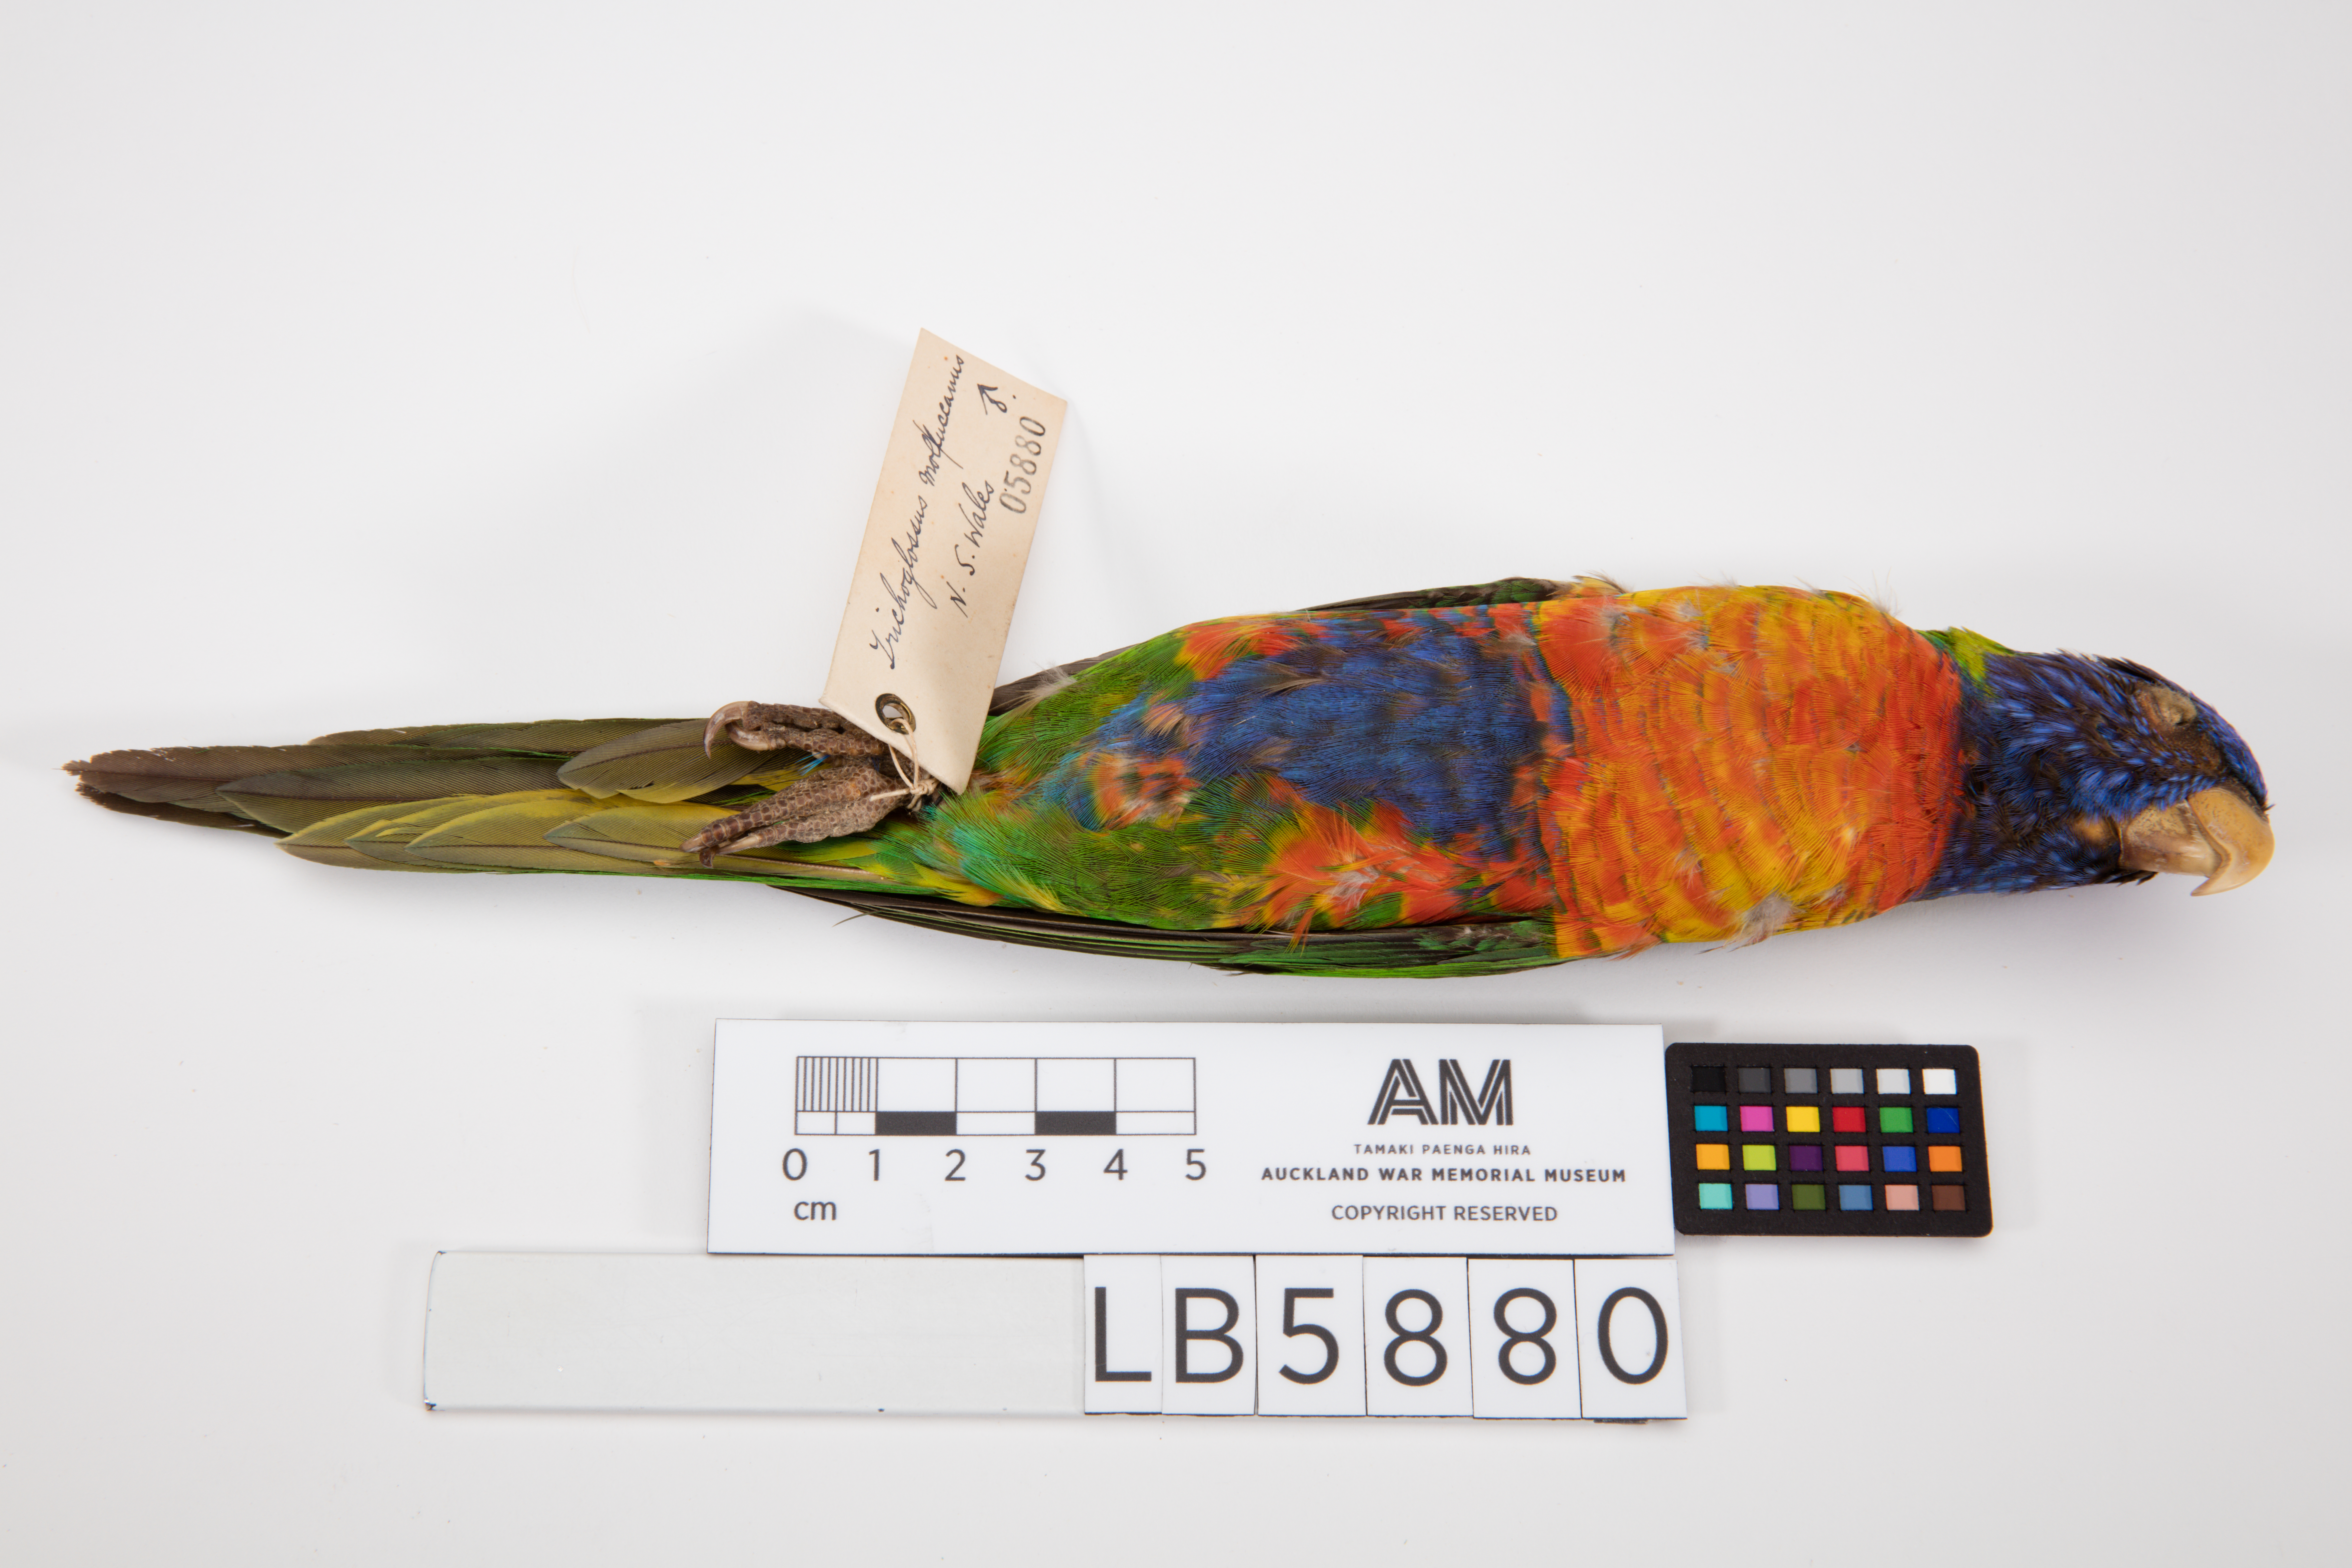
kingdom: Animalia
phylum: Chordata
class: Aves
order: Psittaciformes
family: Psittacidae
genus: Trichoglossus
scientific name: Trichoglossus haematodus
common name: Coconut lorikeet
